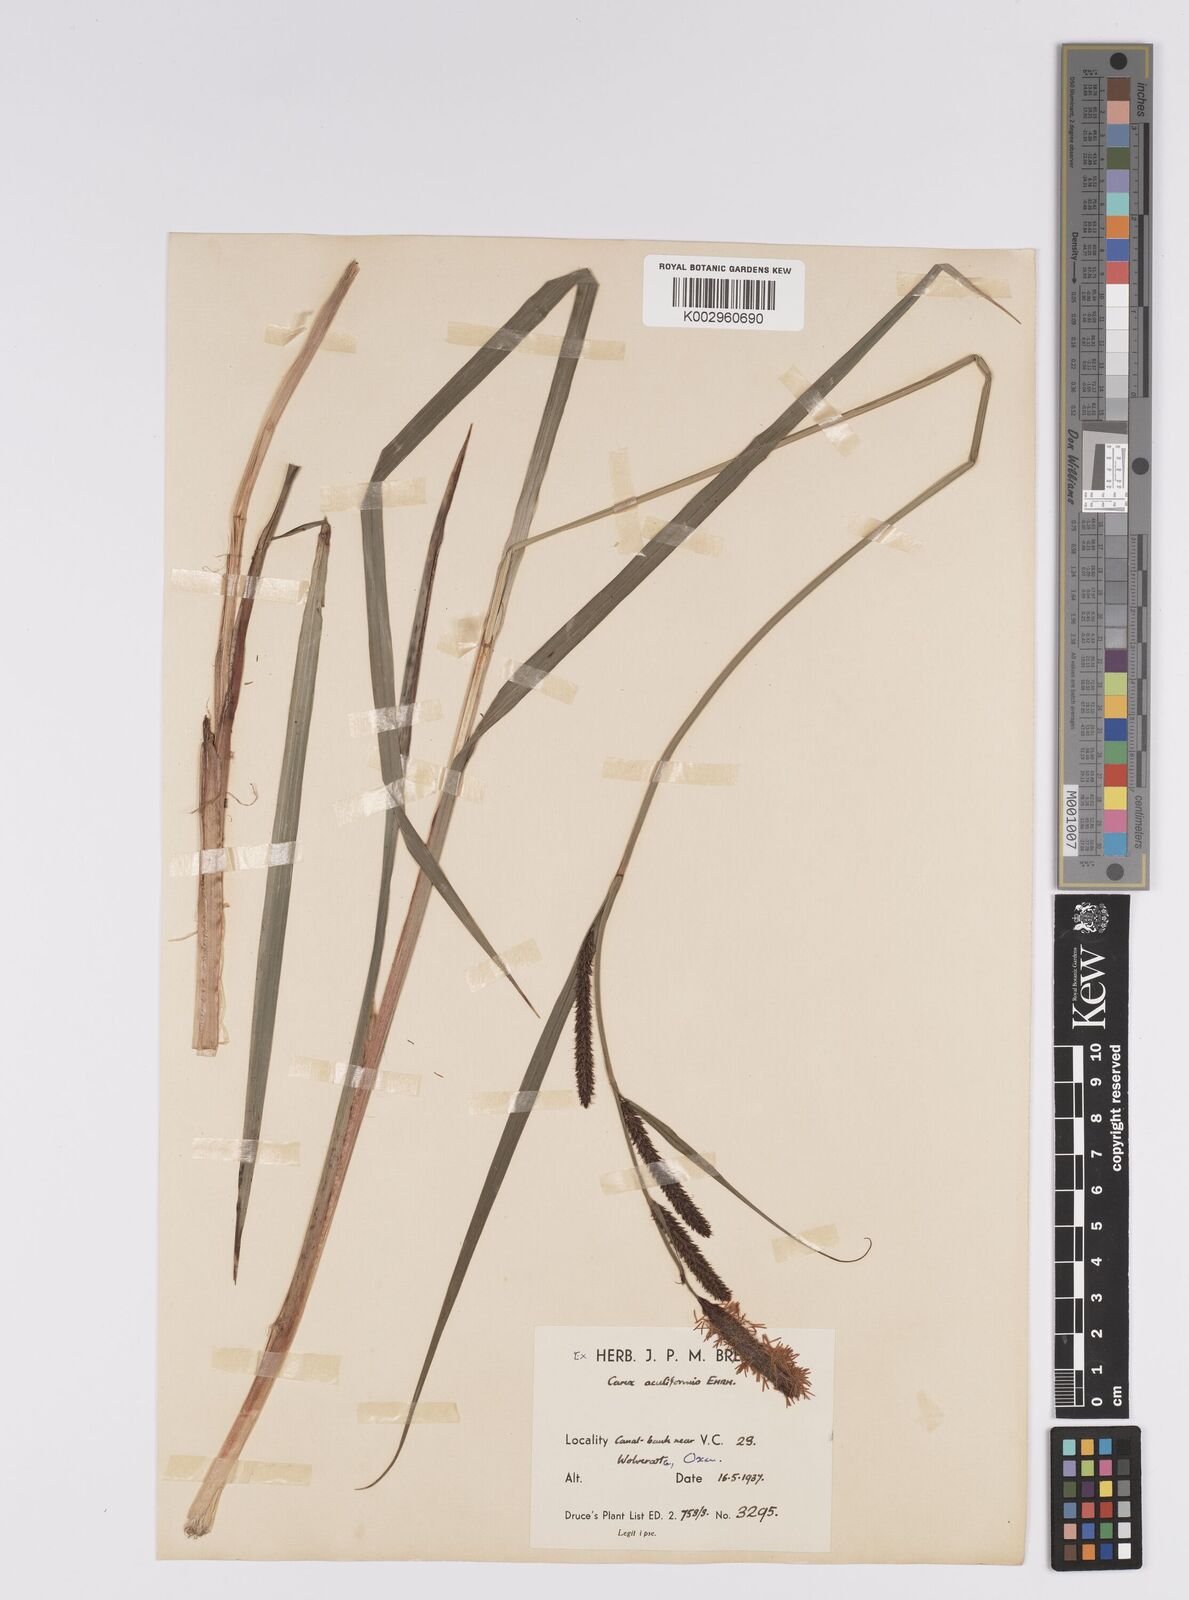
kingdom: Plantae
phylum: Tracheophyta
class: Liliopsida
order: Poales
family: Cyperaceae
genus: Carex
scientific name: Carex acutiformis
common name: Lesser pond-sedge
